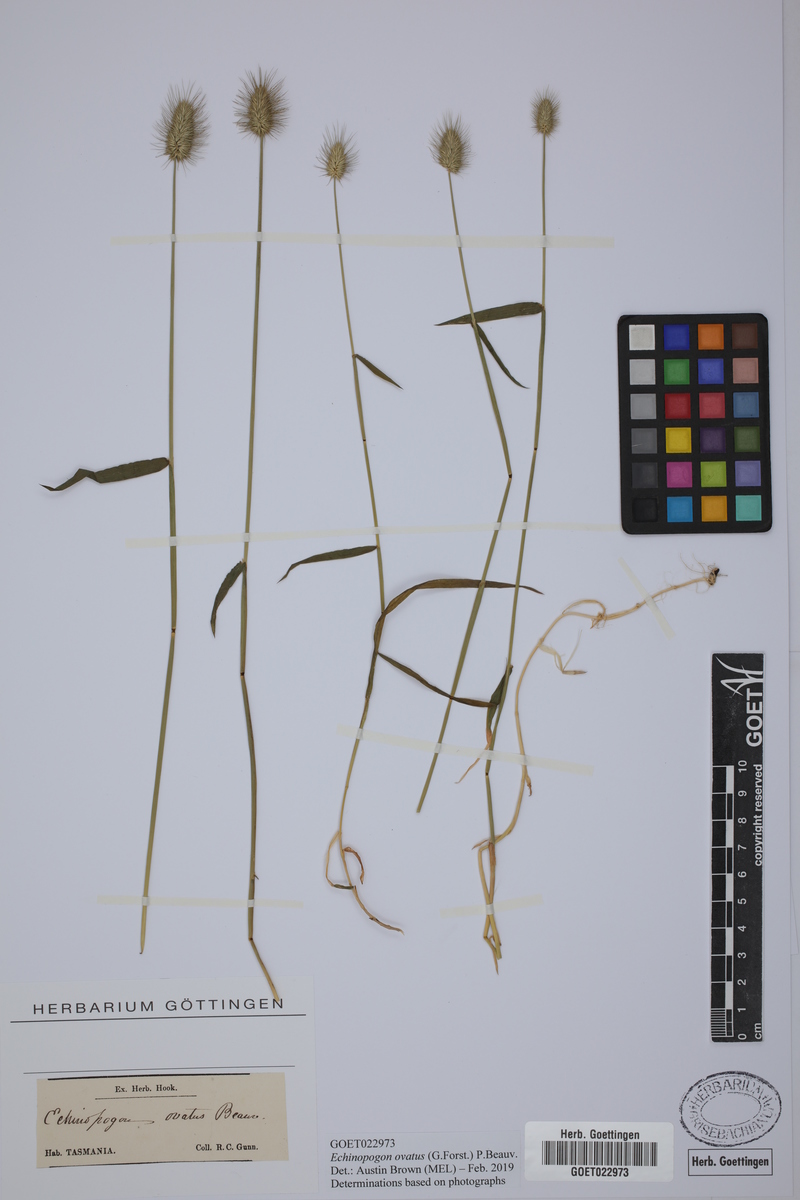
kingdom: Plantae
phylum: Tracheophyta
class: Liliopsida
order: Poales
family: Poaceae
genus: Echinopogon
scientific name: Echinopogon ovatus
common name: Hedgehog-grass
